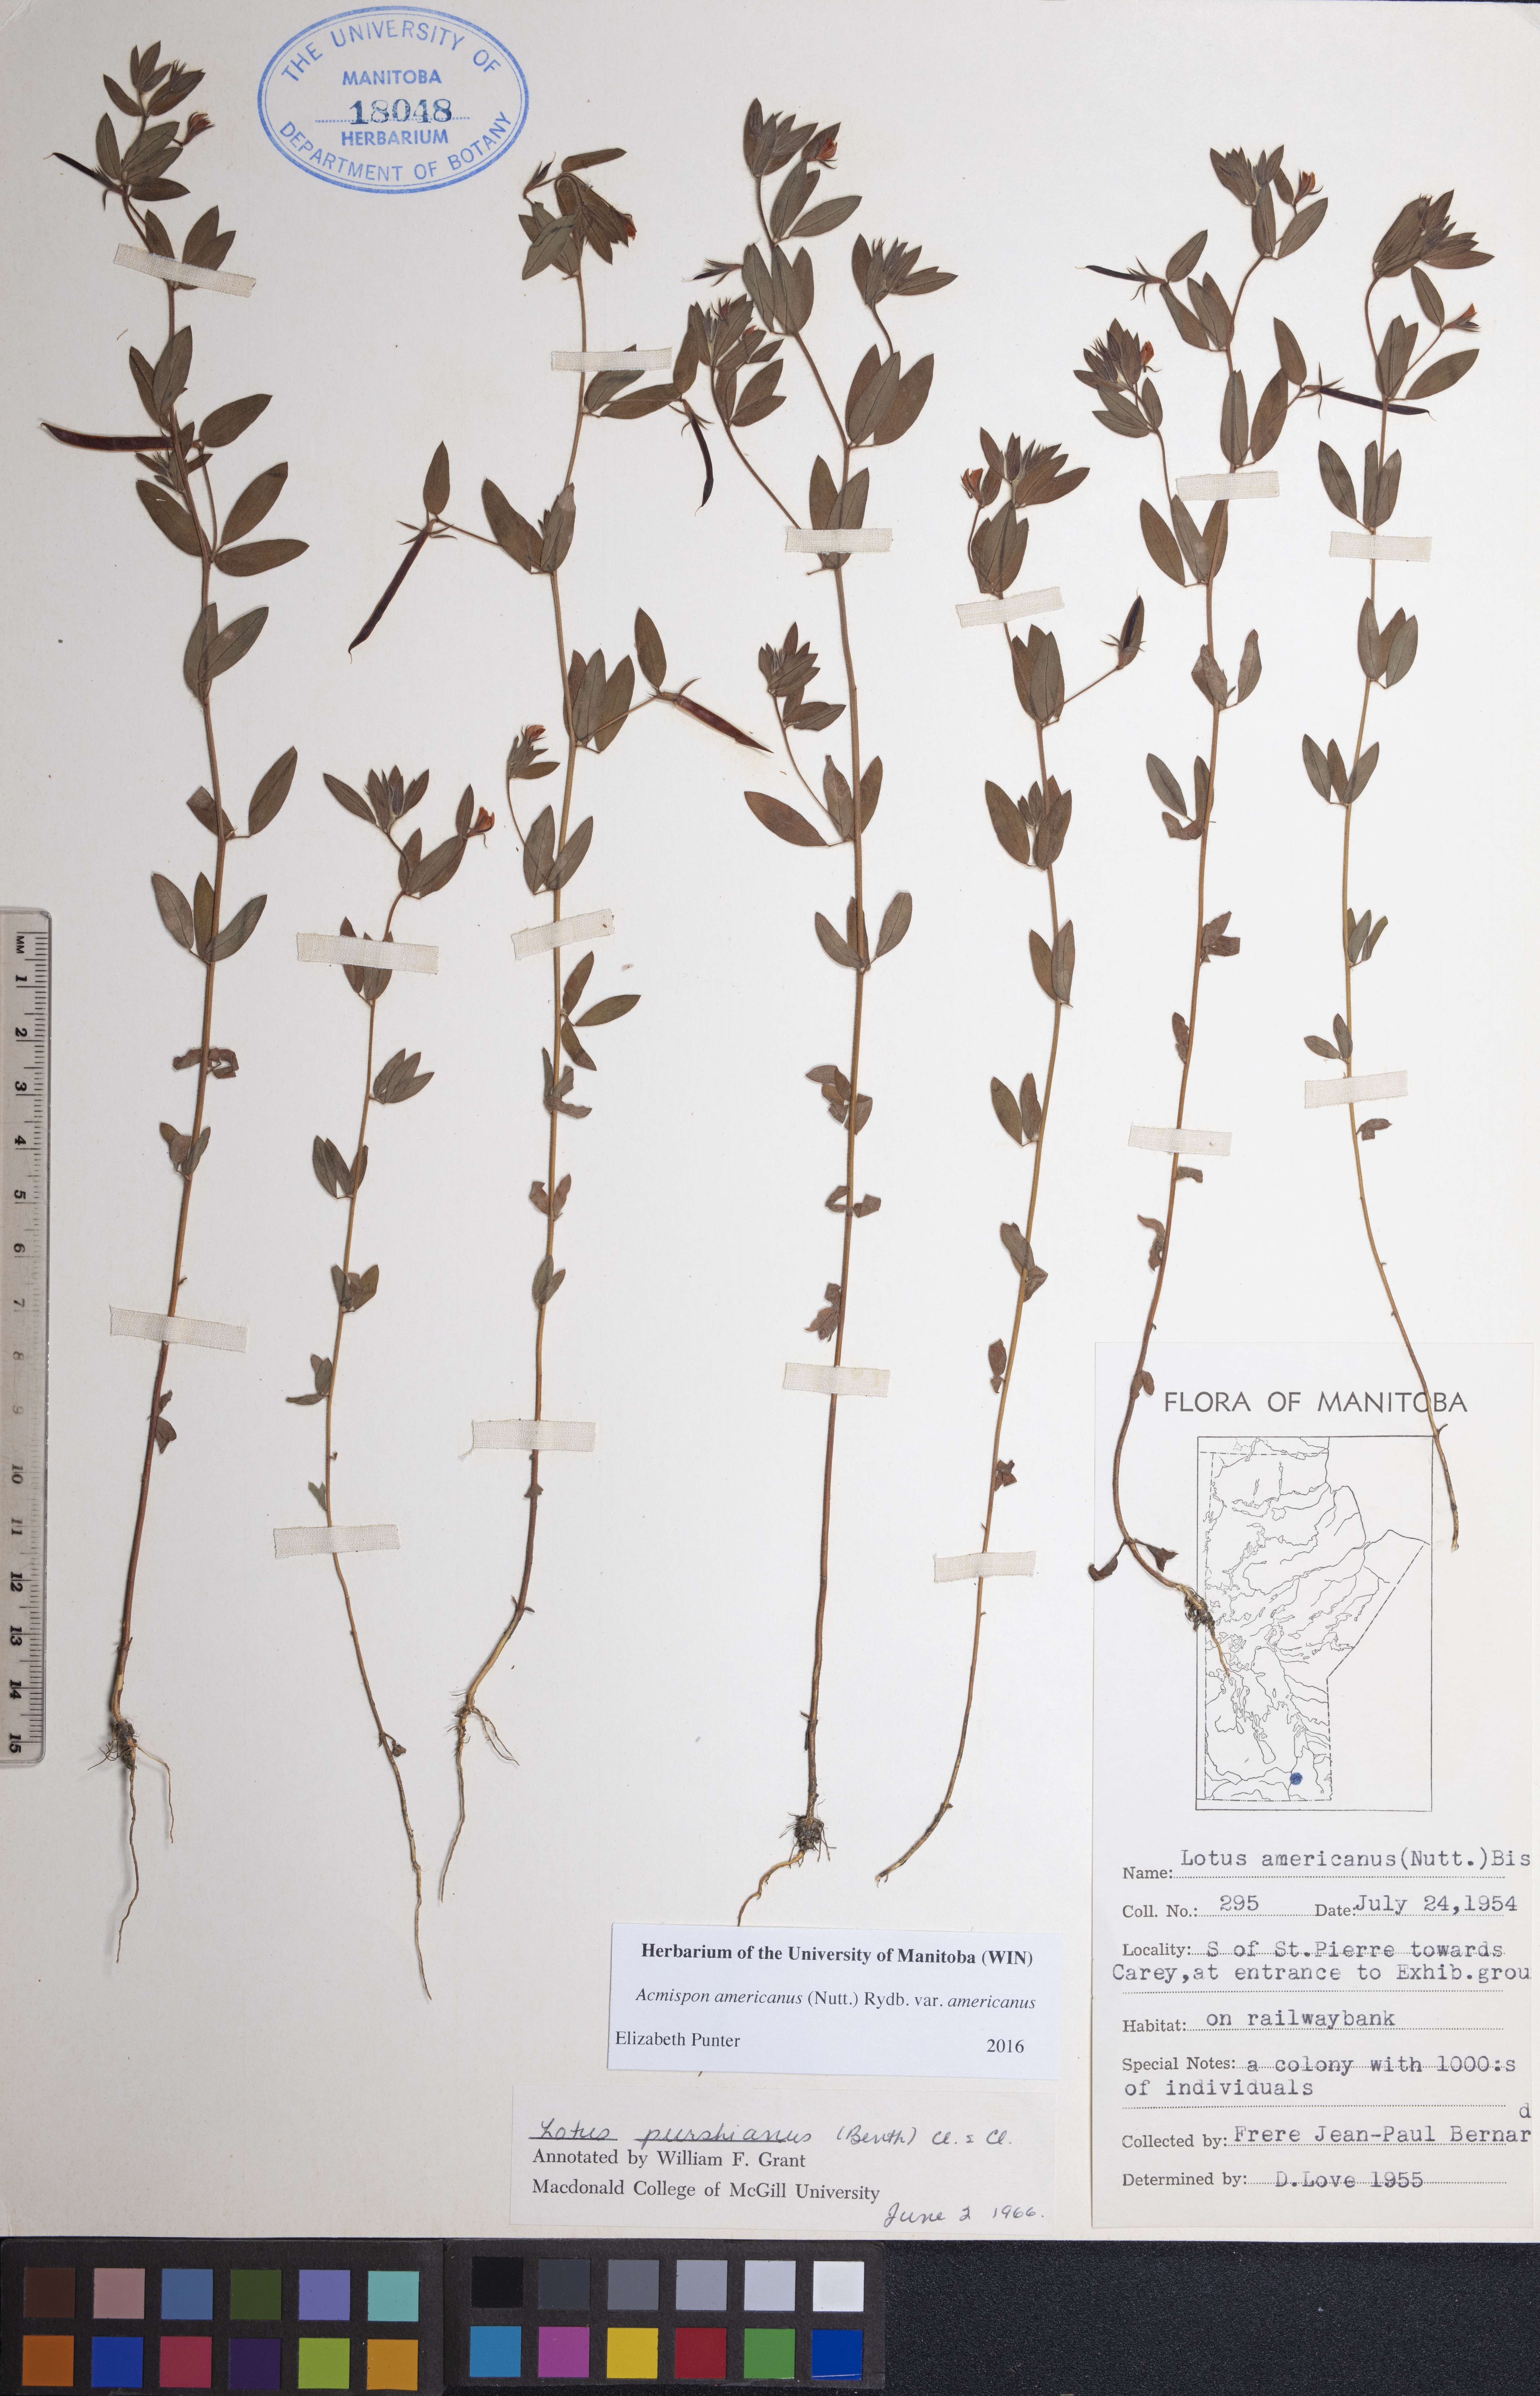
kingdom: Plantae
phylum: Tracheophyta
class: Magnoliopsida
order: Fabales
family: Fabaceae
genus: Acmispon
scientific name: Acmispon americanus
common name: American bird's-foot trefoil
